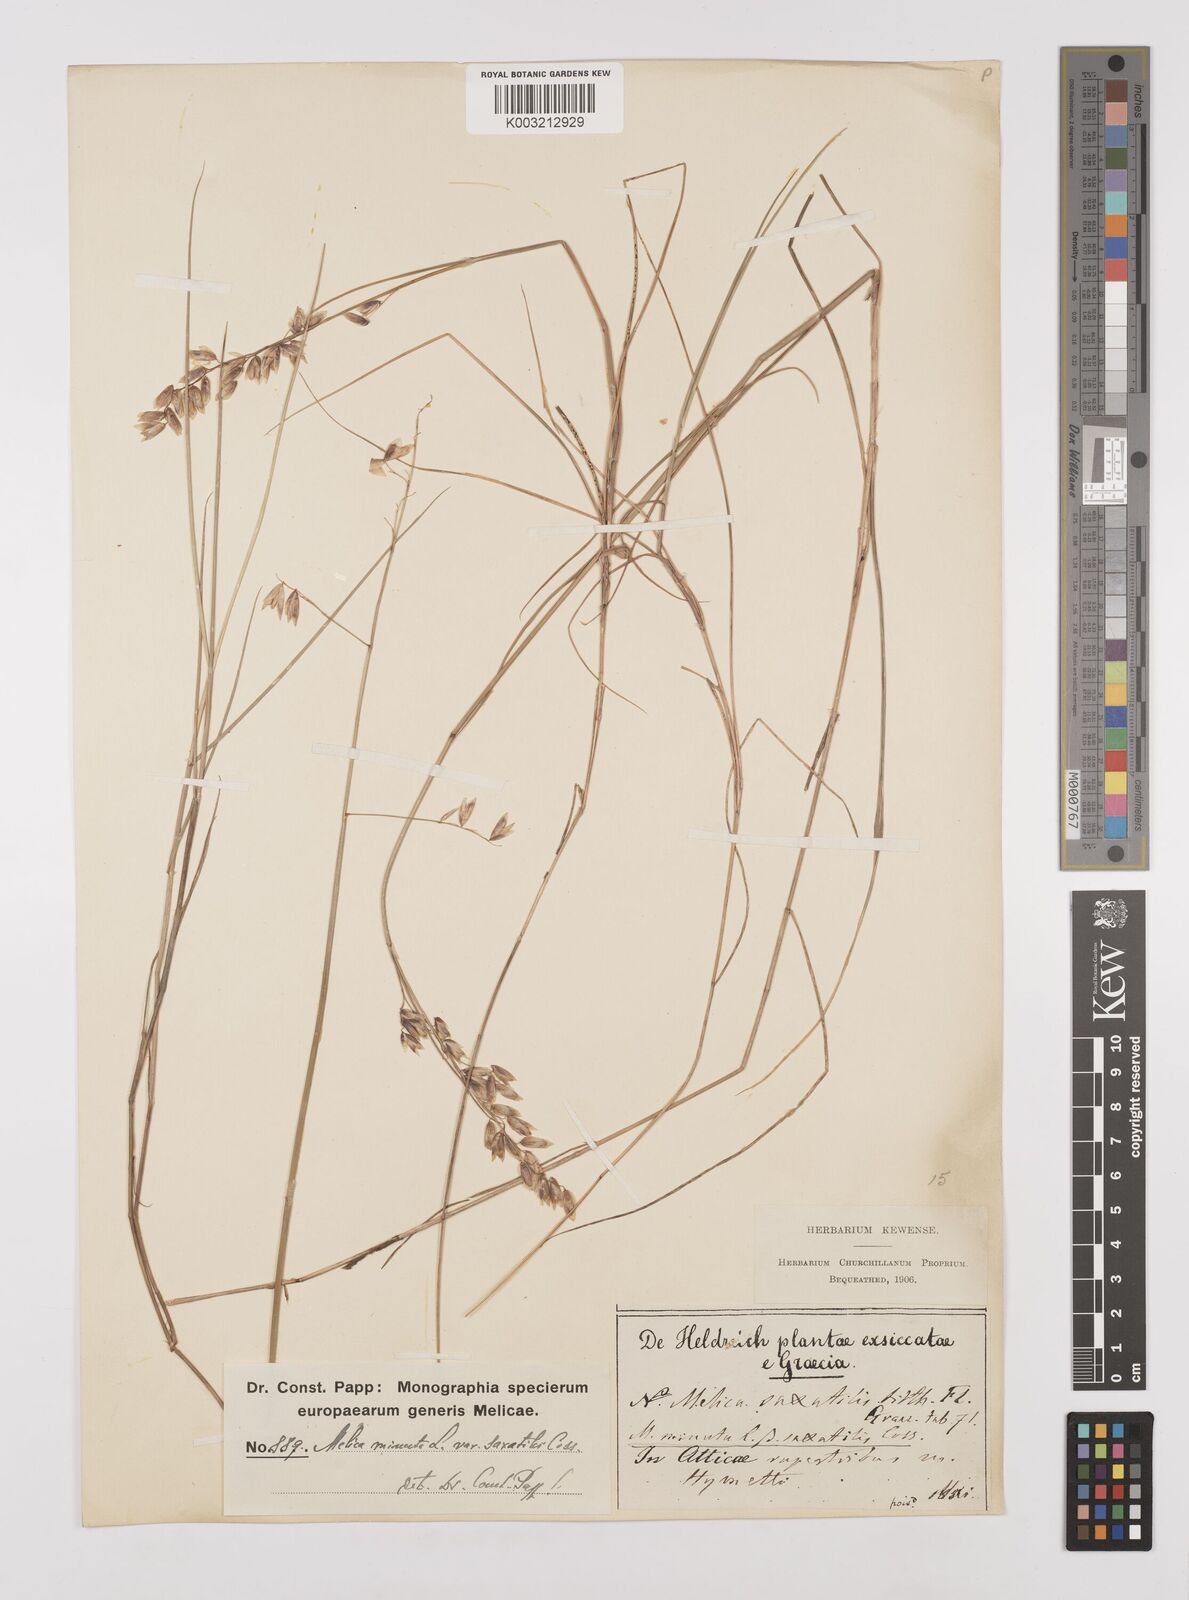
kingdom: Plantae
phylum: Tracheophyta
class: Liliopsida
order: Poales
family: Poaceae
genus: Melica
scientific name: Melica minuta
